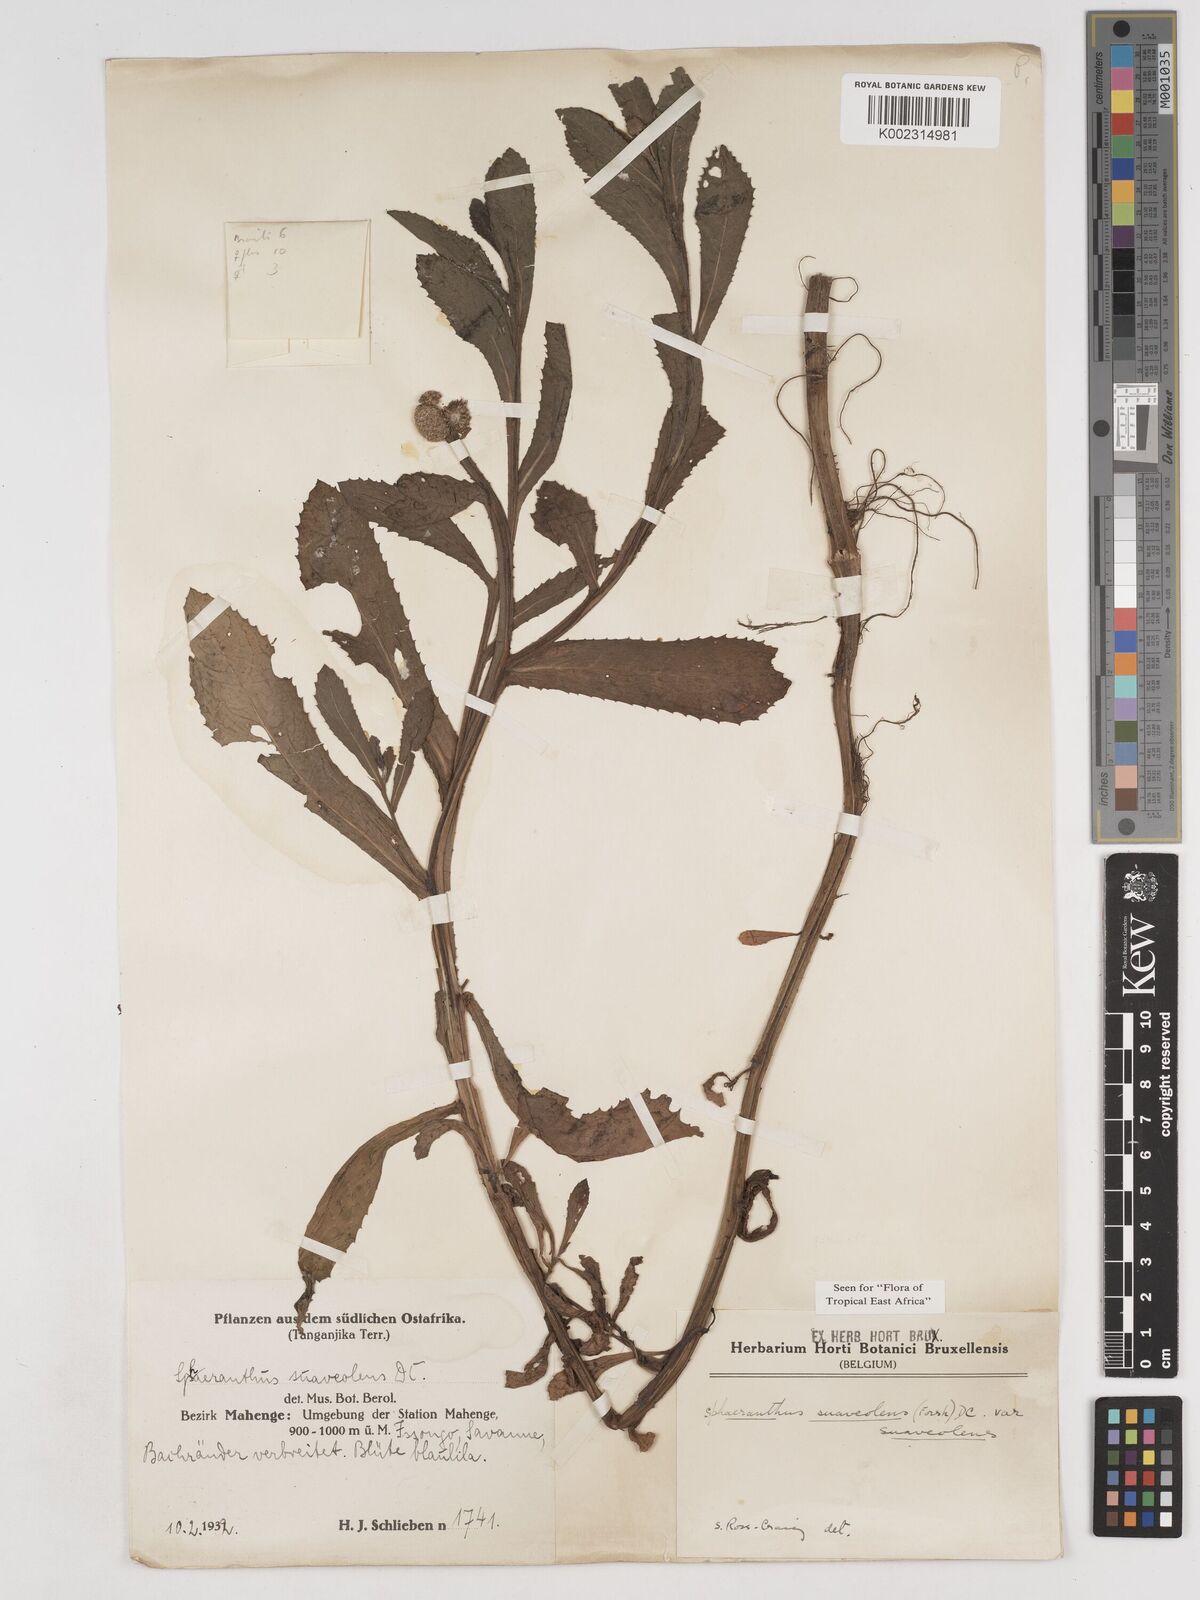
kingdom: Plantae
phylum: Tracheophyta
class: Magnoliopsida
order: Asterales
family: Asteraceae
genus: Sphaeranthus
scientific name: Sphaeranthus suaveolens
